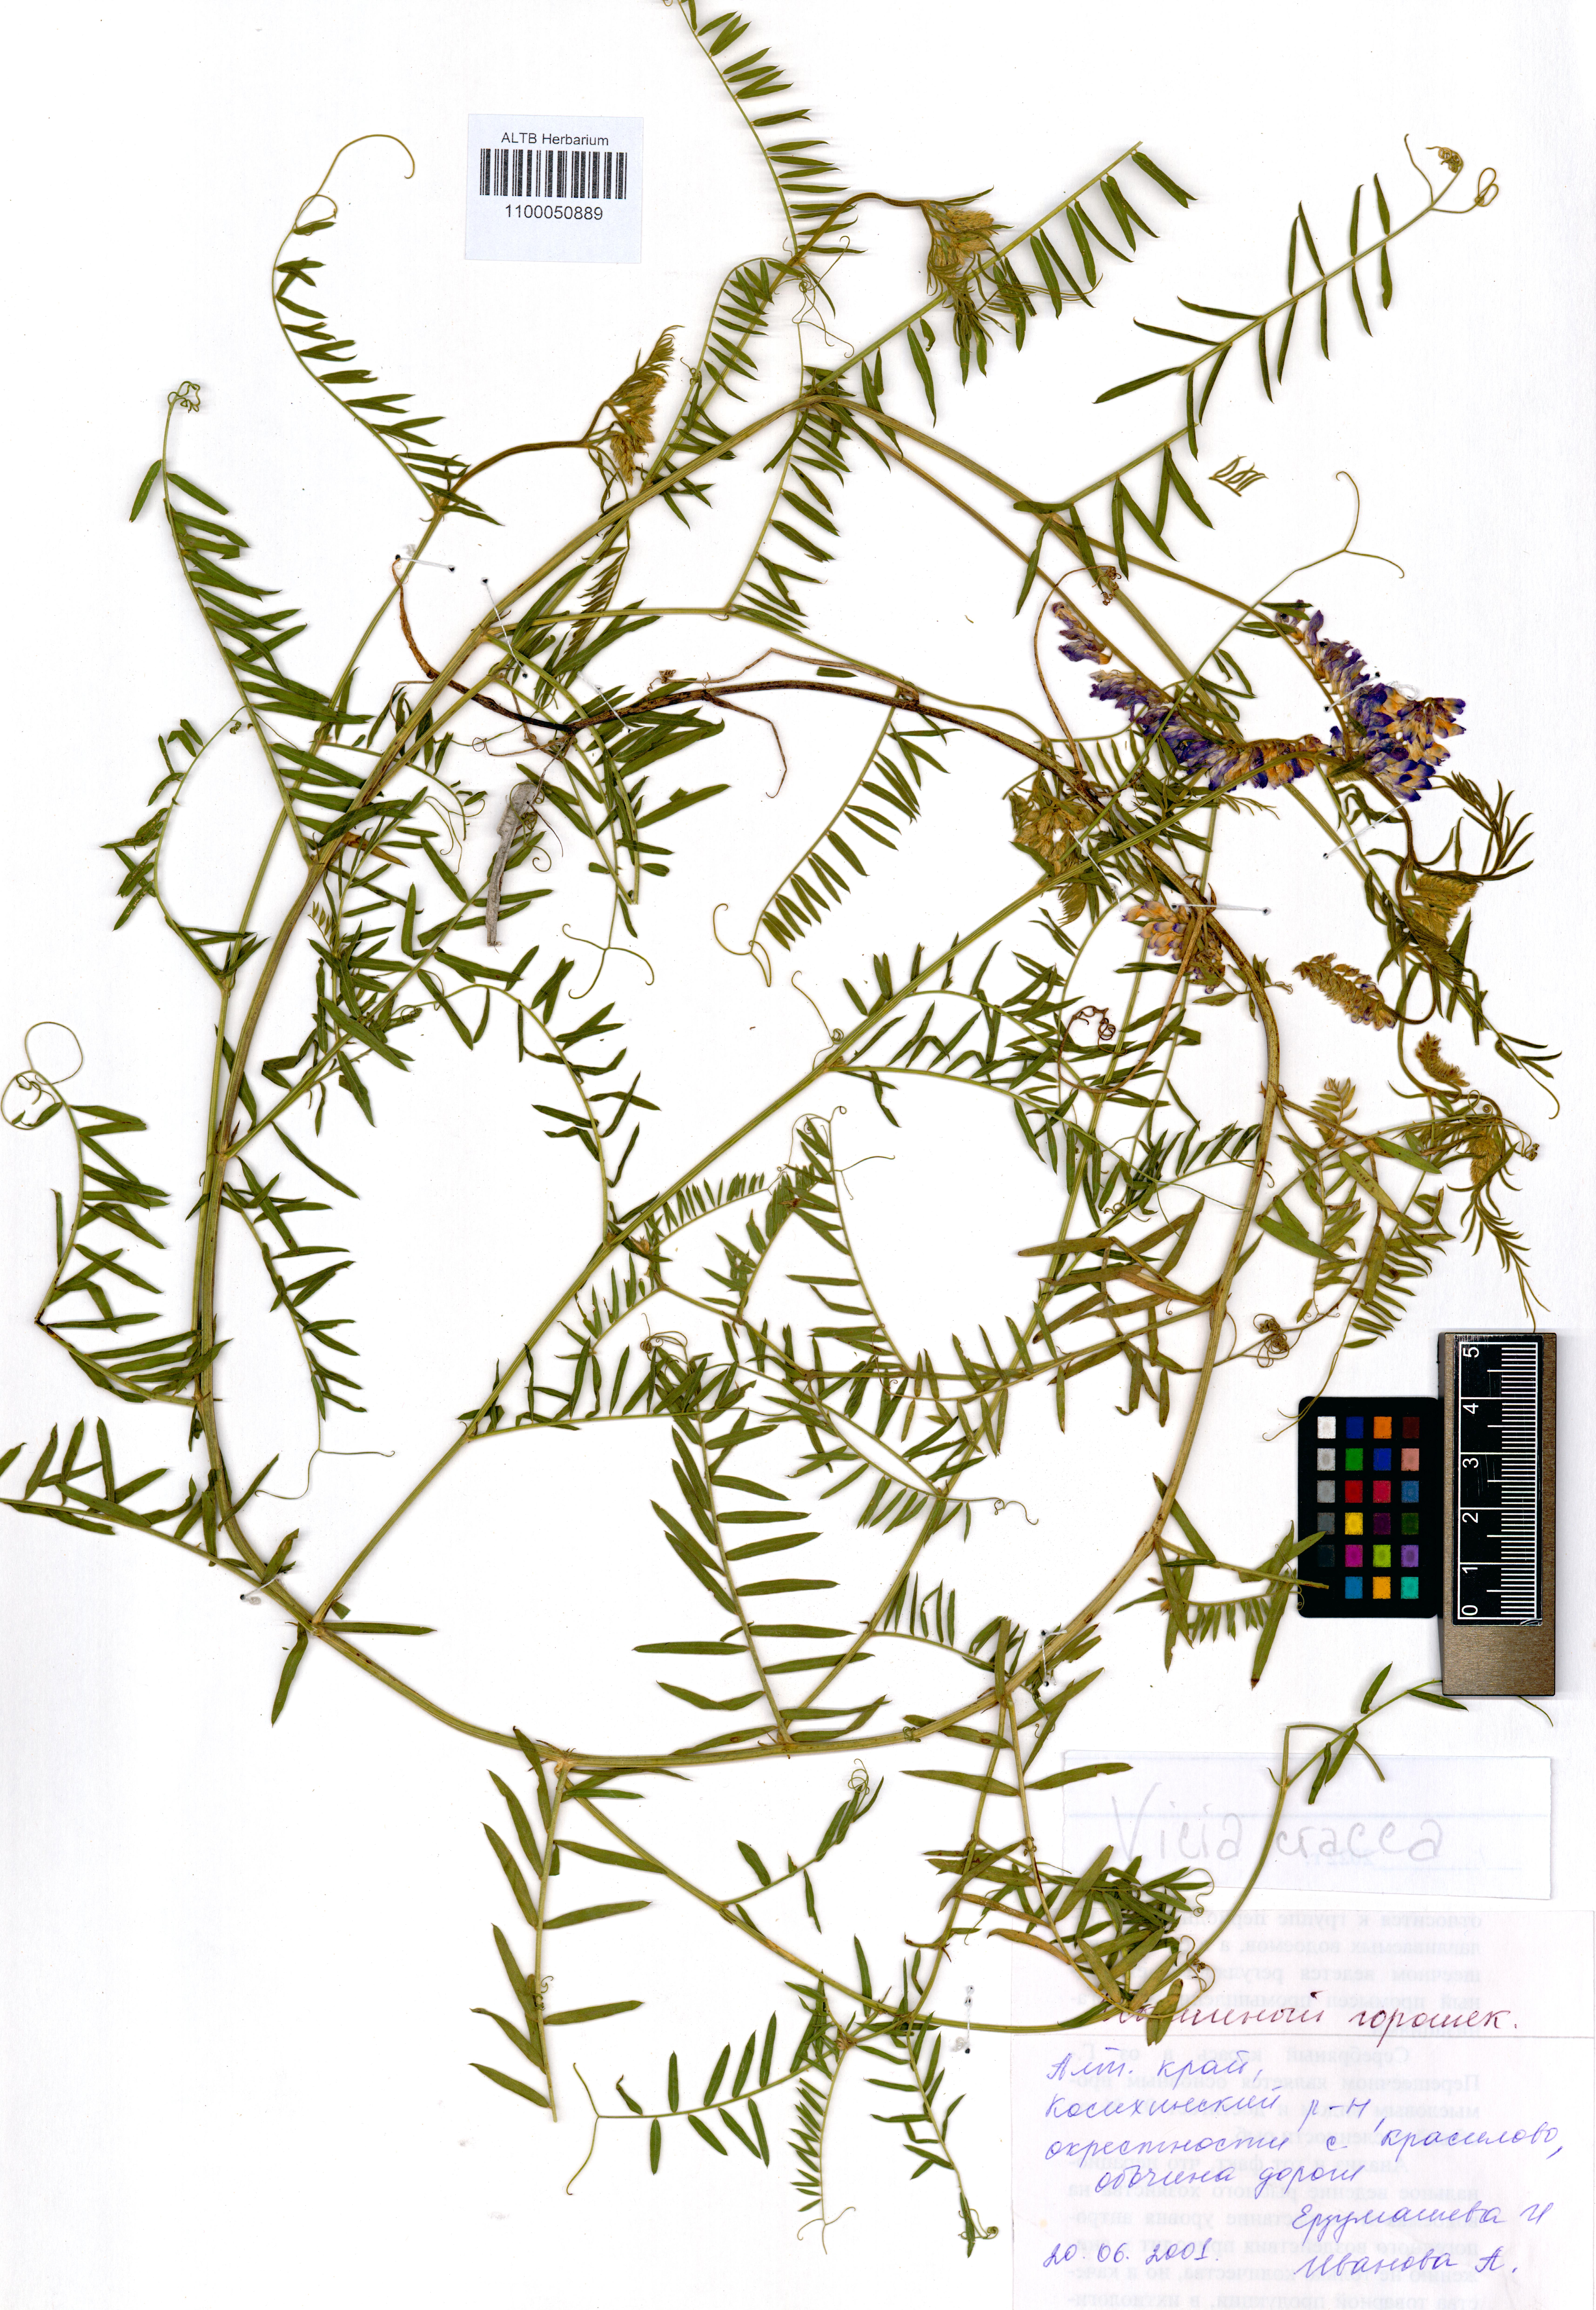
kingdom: Plantae
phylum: Tracheophyta
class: Magnoliopsida
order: Fabales
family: Fabaceae
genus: Vicia
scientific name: Vicia cracca
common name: Bird vetch
